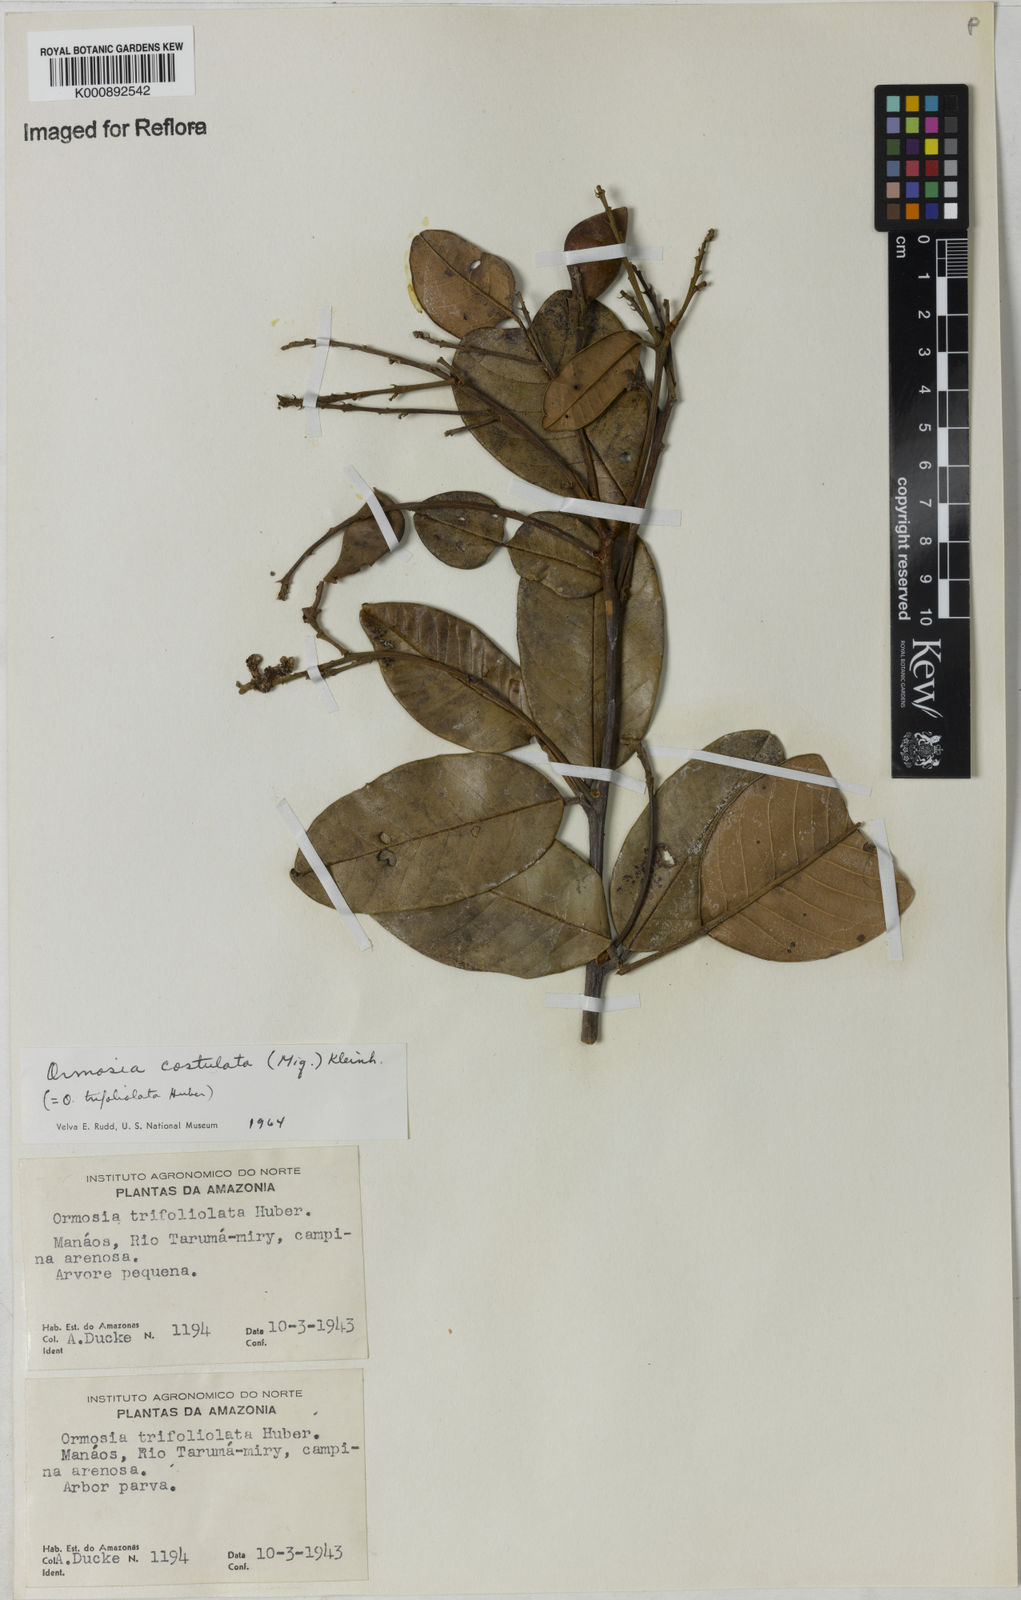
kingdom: Plantae
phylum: Tracheophyta
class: Magnoliopsida
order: Fabales
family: Fabaceae
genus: Ormosia
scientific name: Ormosia costulata
